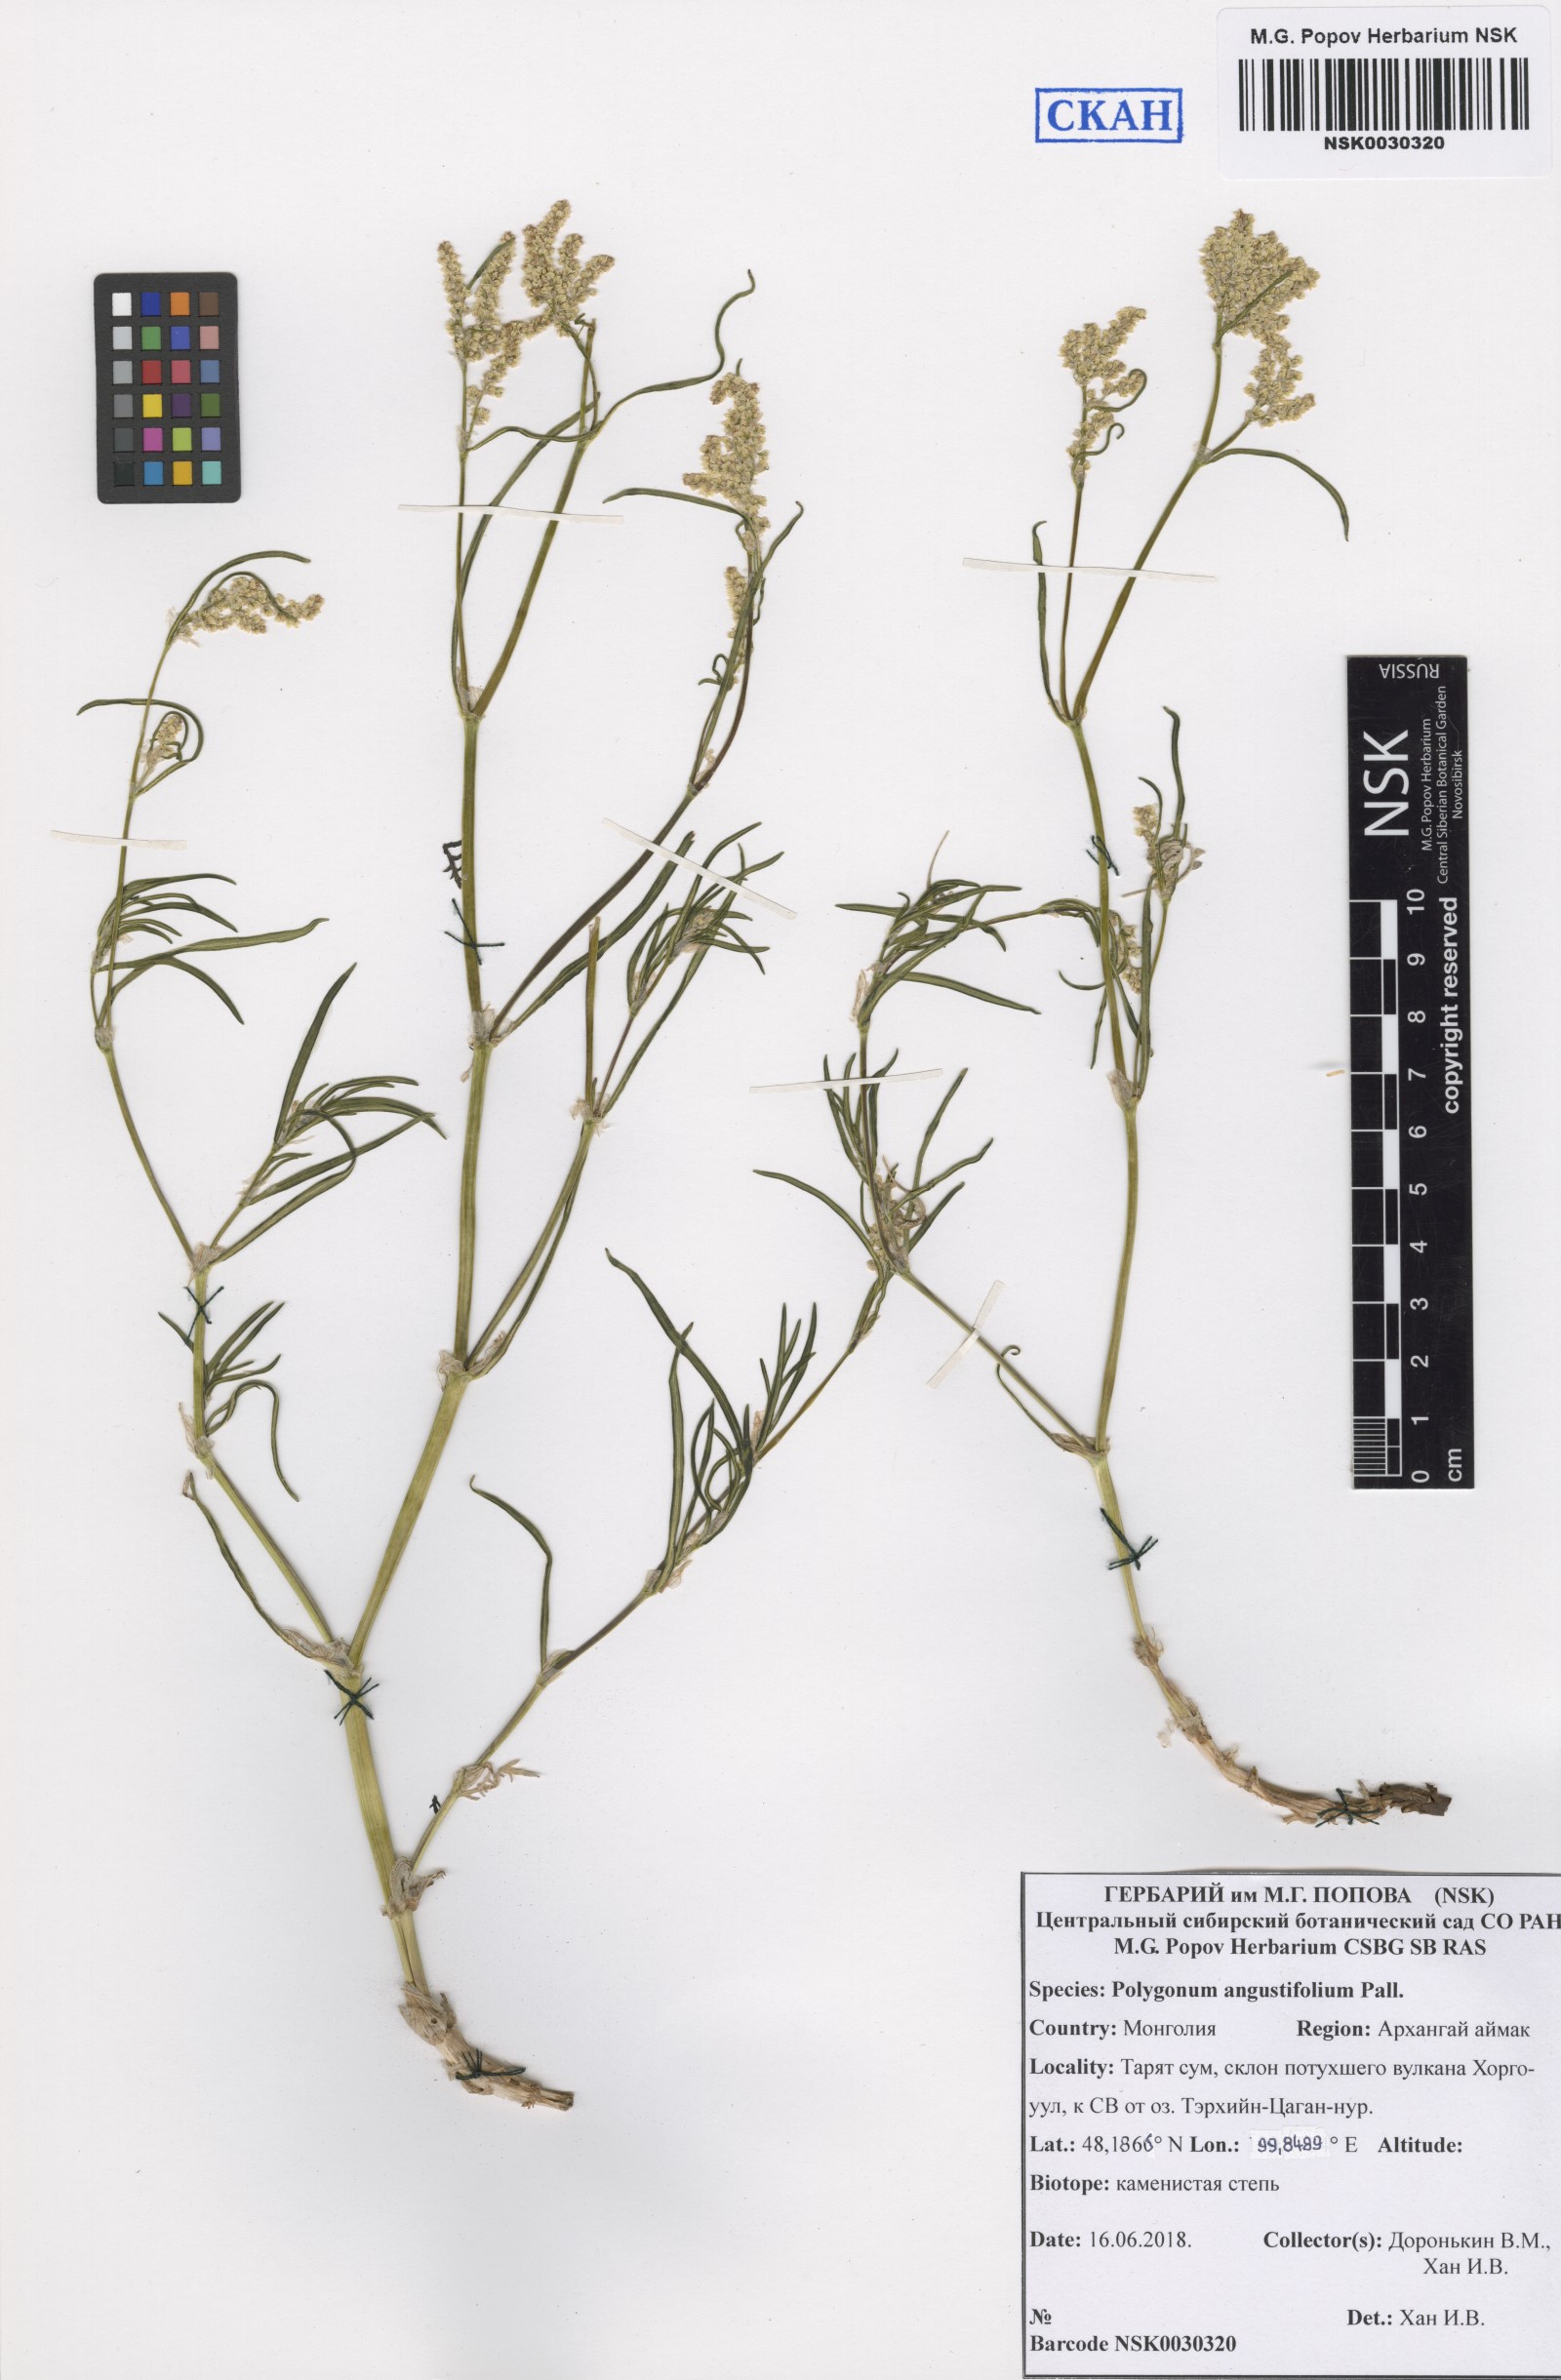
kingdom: Plantae
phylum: Tracheophyta
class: Magnoliopsida
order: Caryophyllales
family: Polygonaceae
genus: Persicaria
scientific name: Persicaria angustifolia
